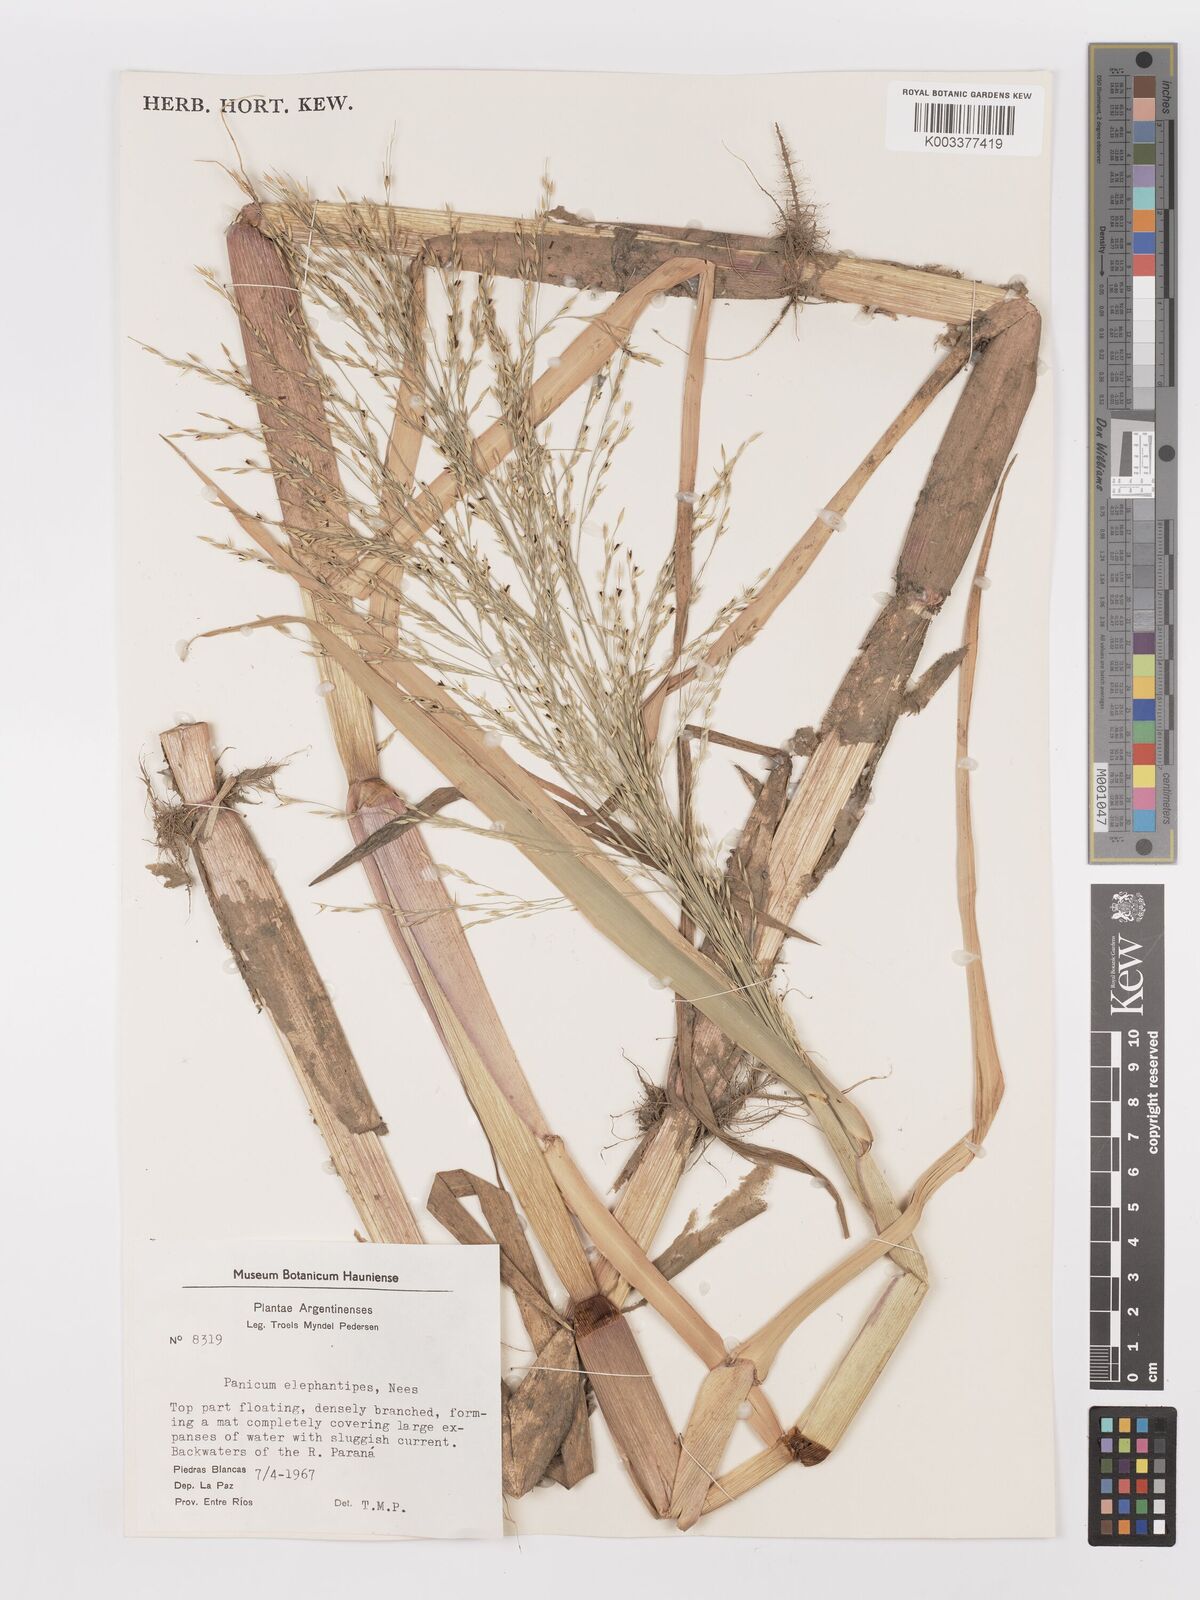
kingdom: Plantae
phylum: Tracheophyta
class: Liliopsida
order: Poales
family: Poaceae
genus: Louisiella
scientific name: Louisiella elephantipes
